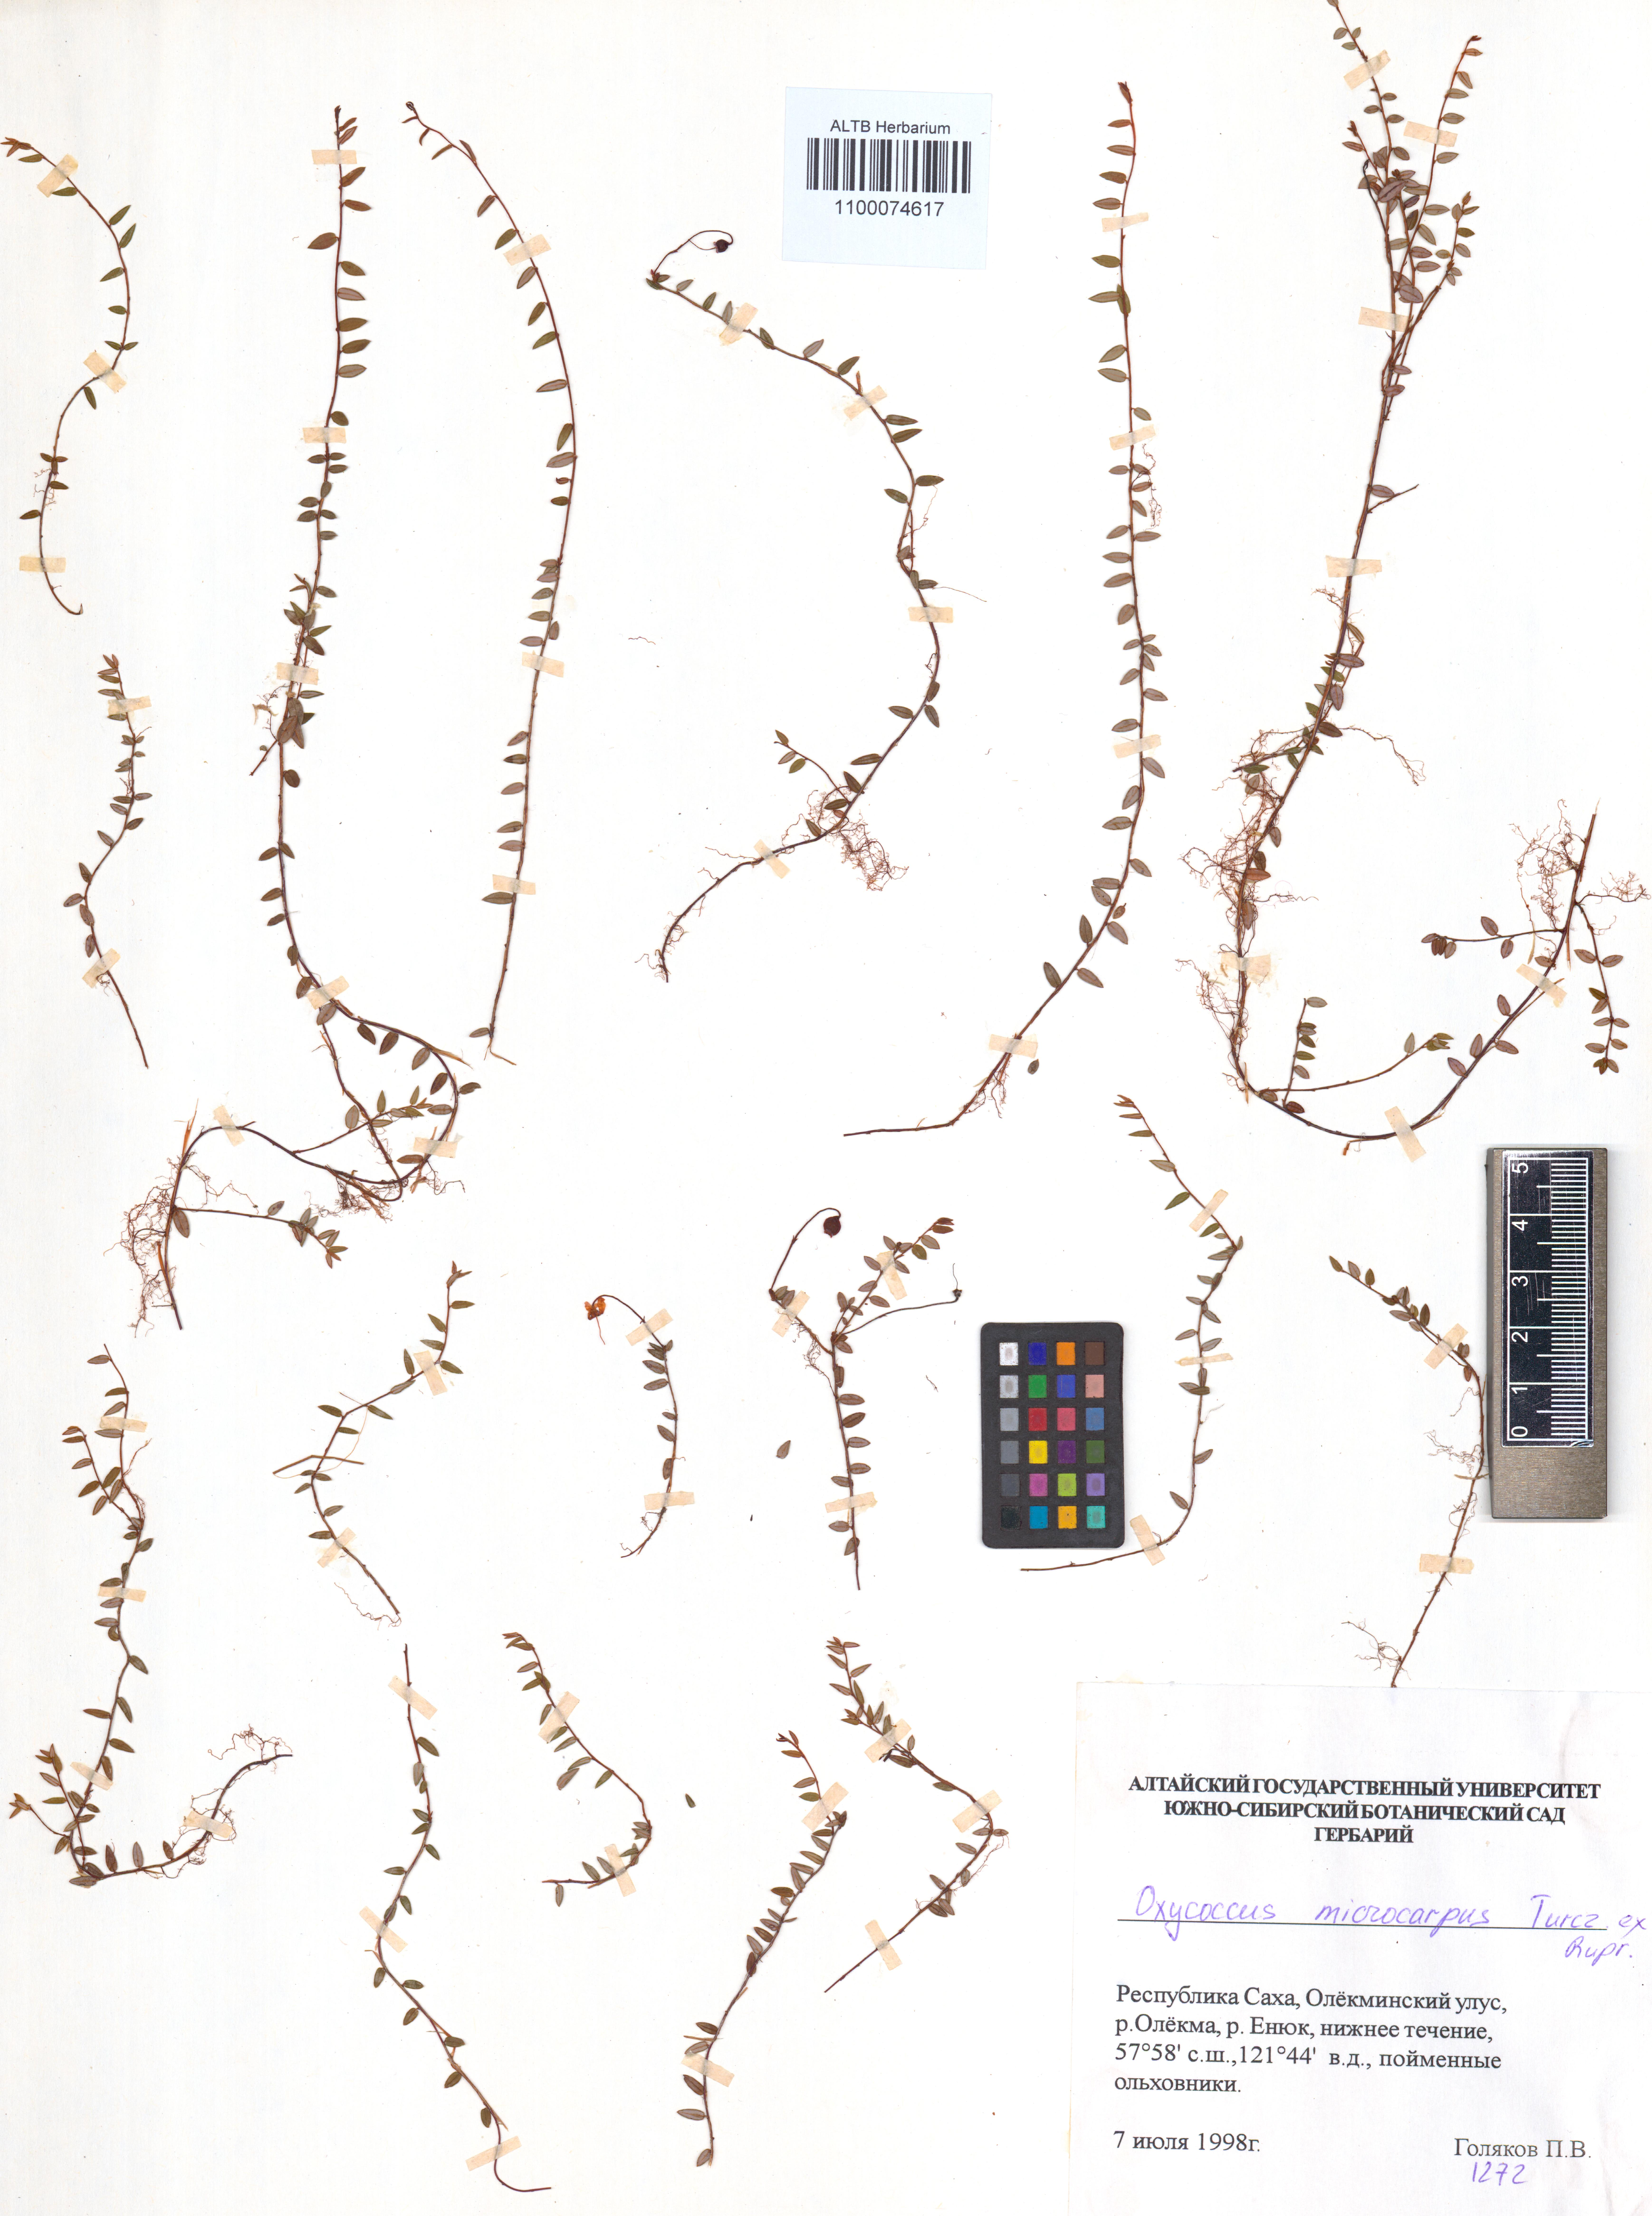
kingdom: Plantae
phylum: Tracheophyta
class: Magnoliopsida
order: Ericales
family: Ericaceae
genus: Vaccinium
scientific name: Vaccinium microcarpum
